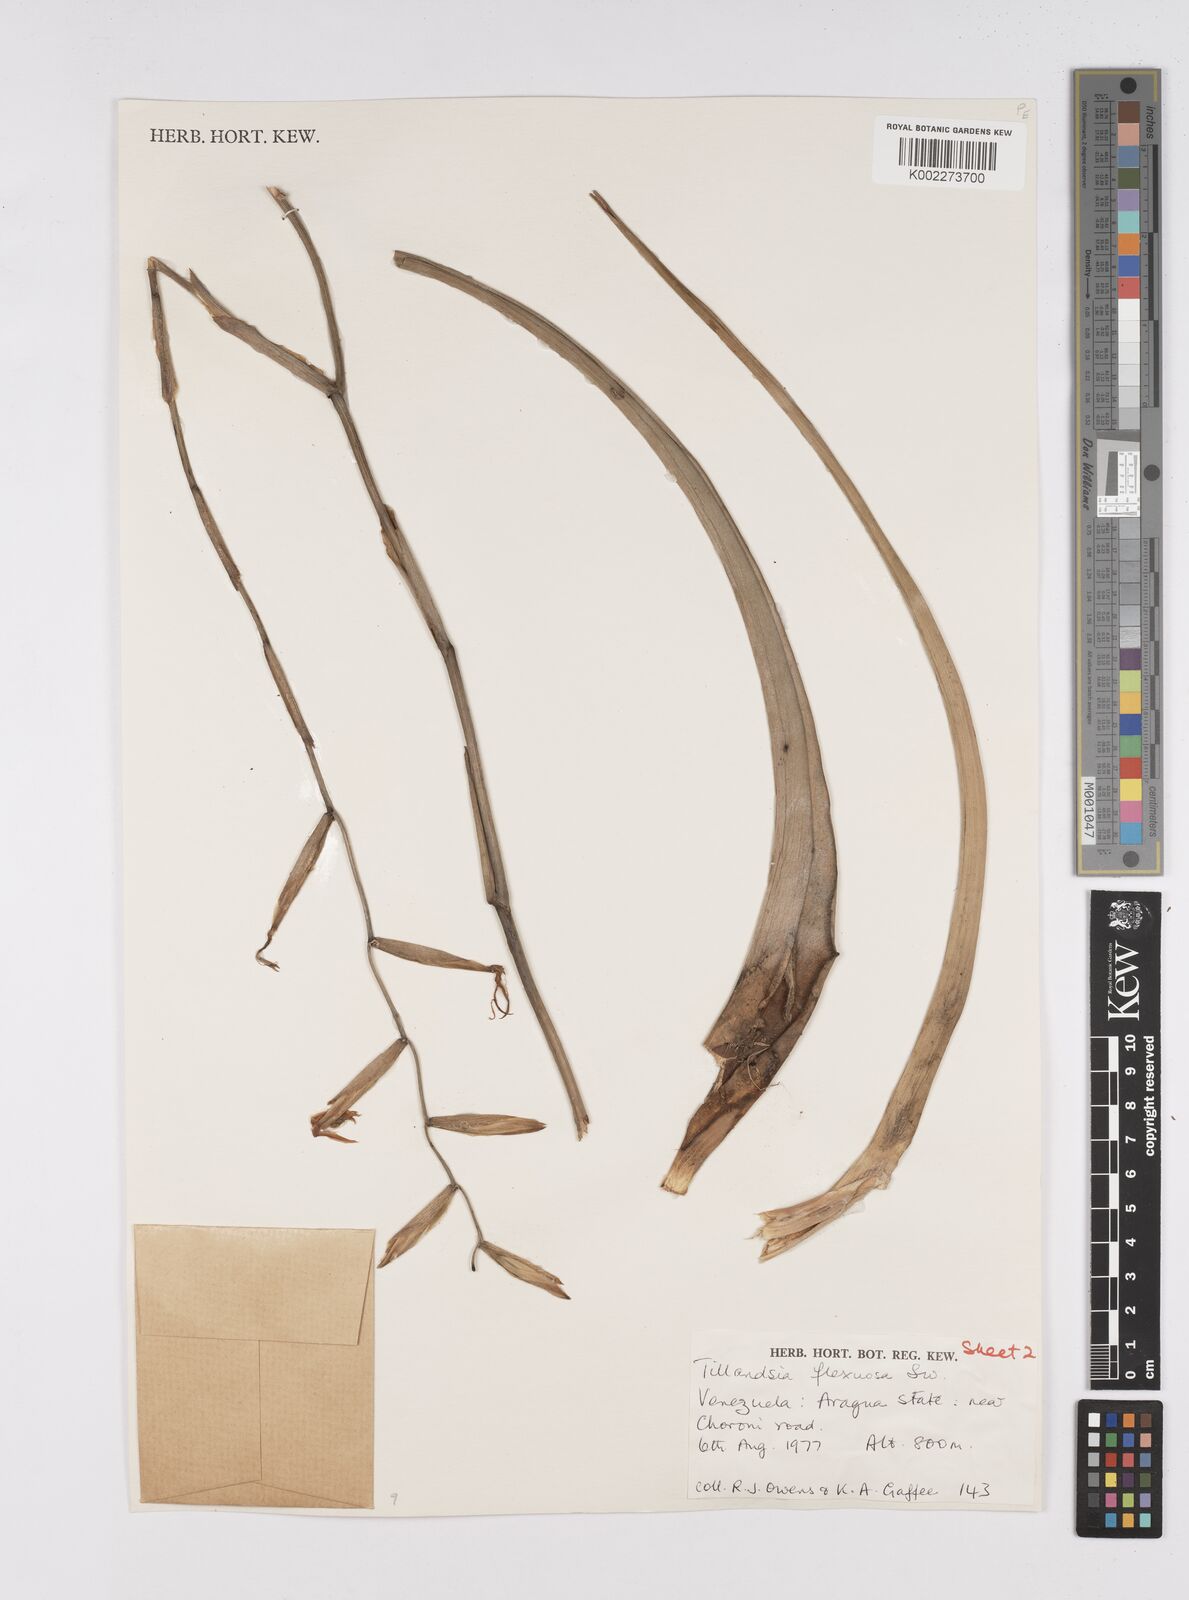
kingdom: Plantae
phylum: Tracheophyta
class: Liliopsida
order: Poales
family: Bromeliaceae
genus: Tillandsia
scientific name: Tillandsia flexuosa
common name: Banded airplant
